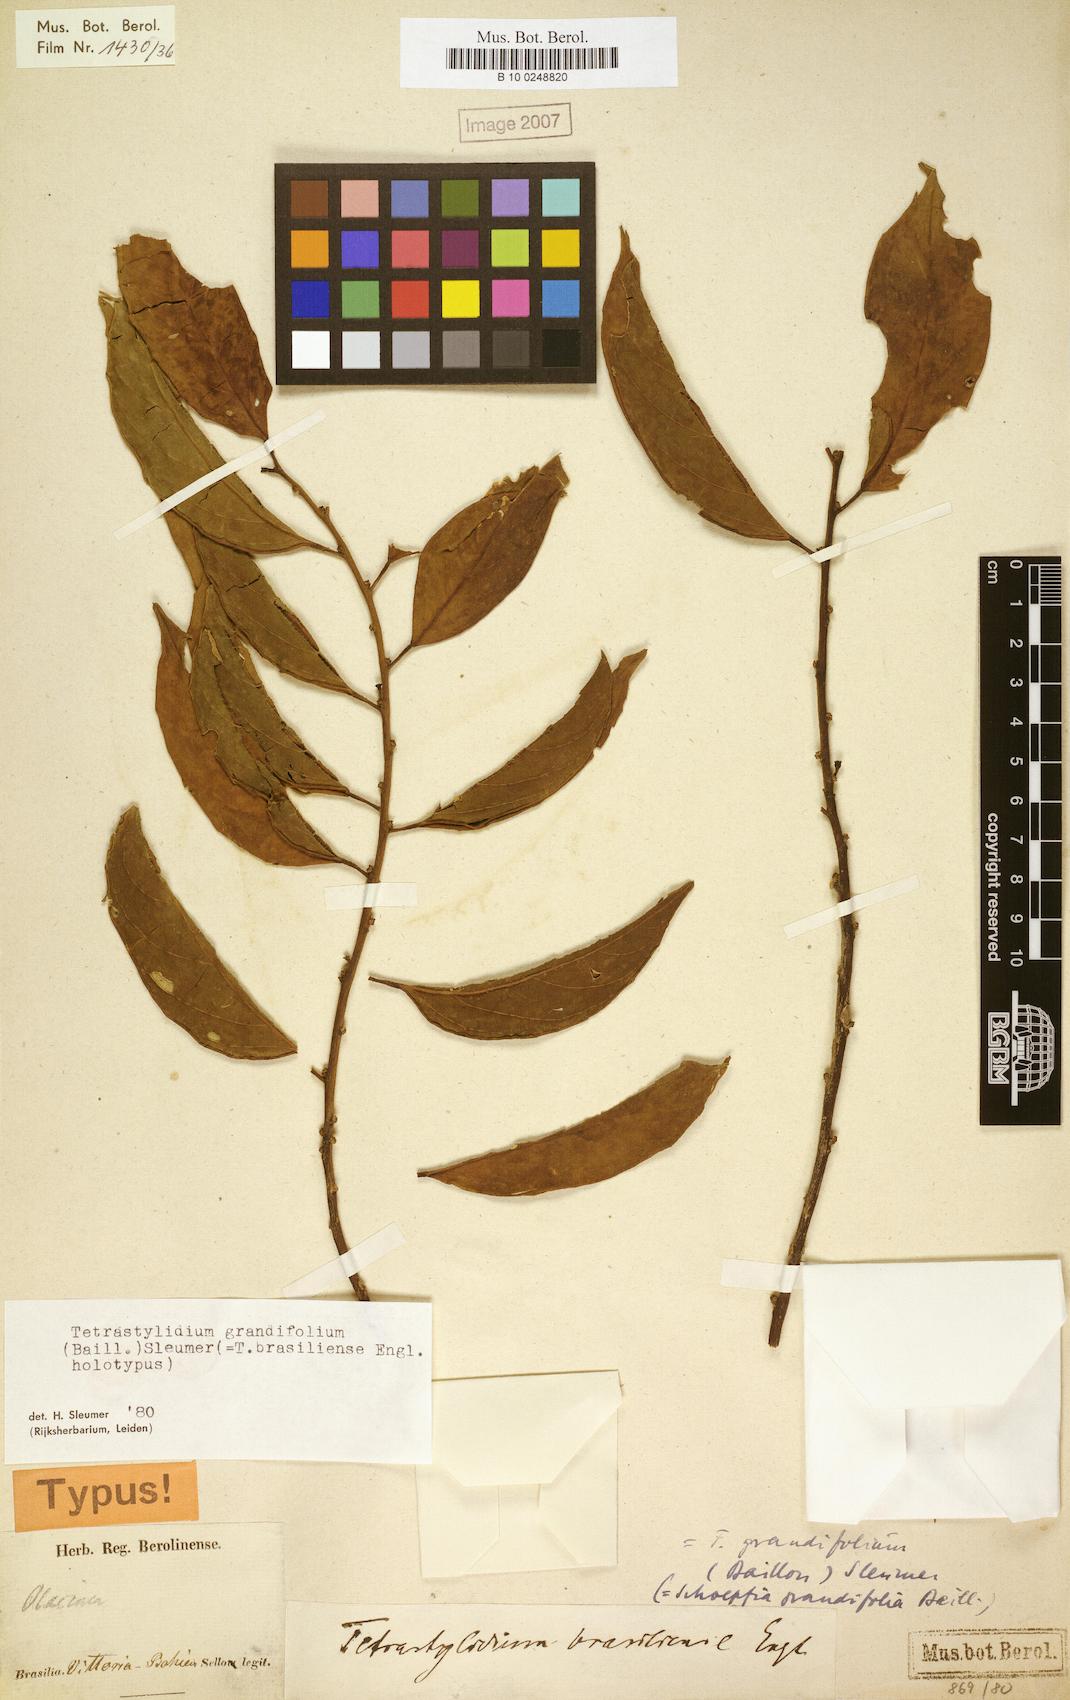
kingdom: Plantae
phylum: Tracheophyta
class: Magnoliopsida
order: Santalales
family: Strombosiaceae
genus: Tetrastylidium
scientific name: Tetrastylidium grandifolium
